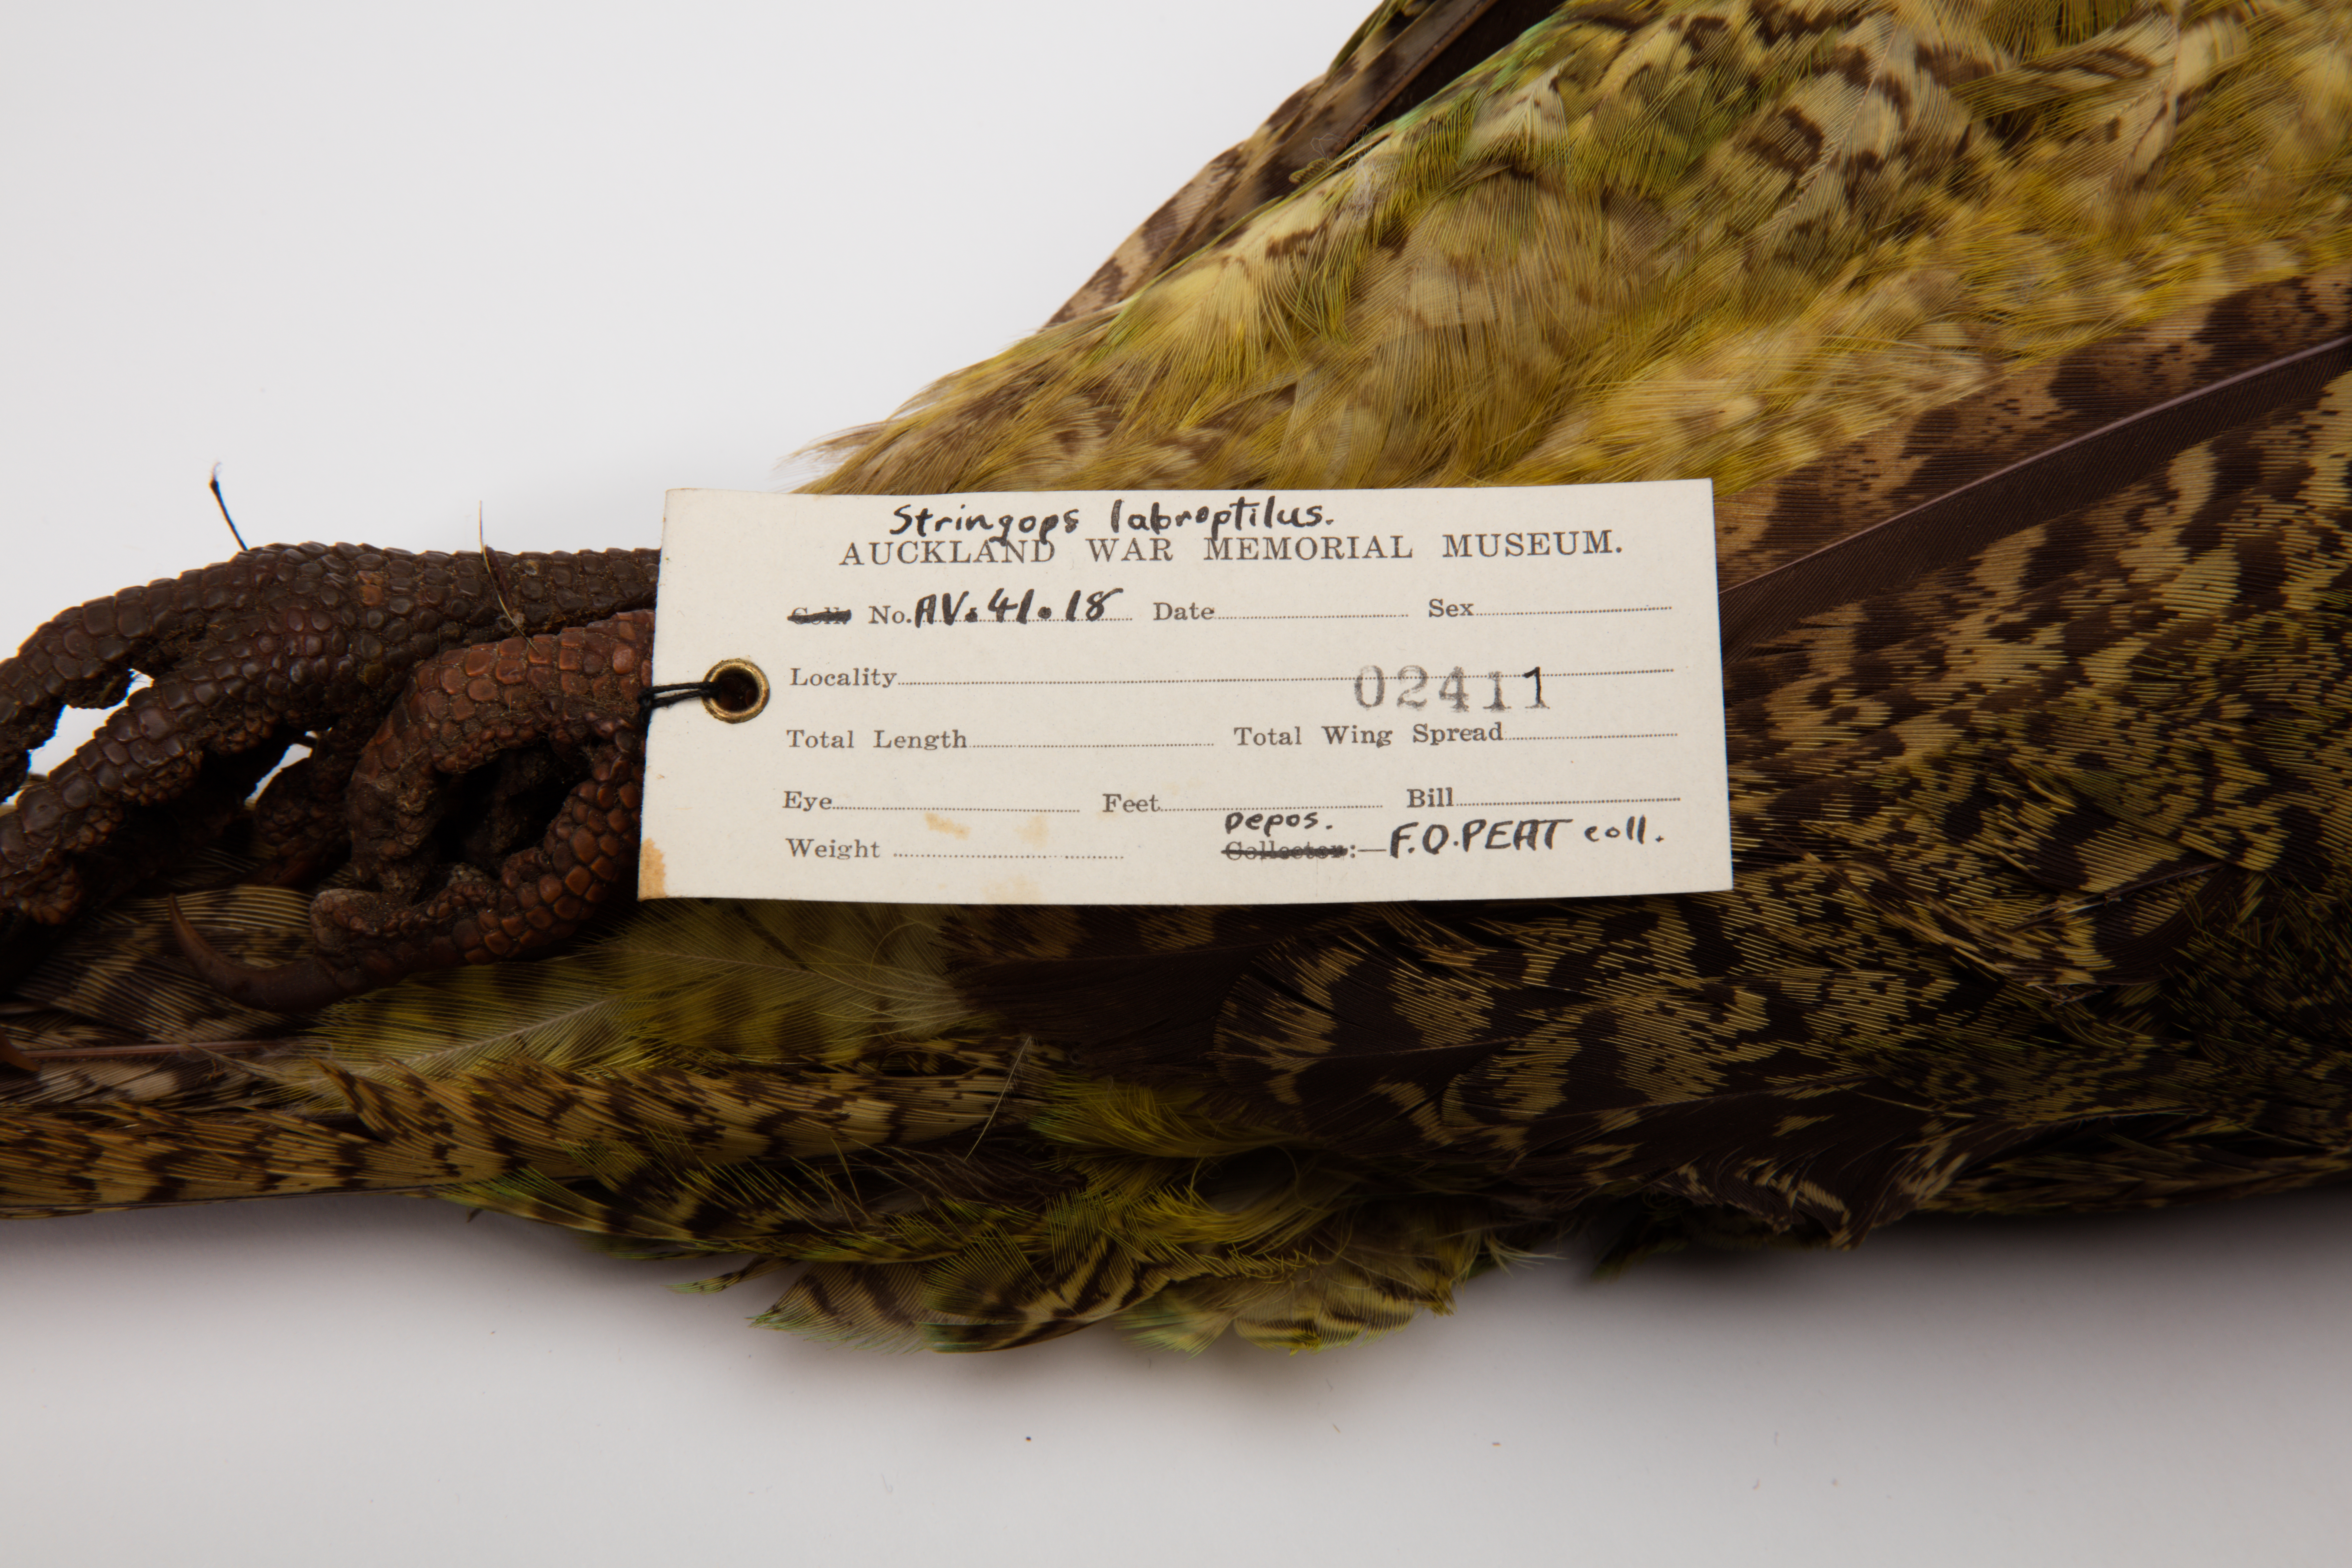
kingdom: Animalia
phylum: Chordata
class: Aves
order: Psittaciformes
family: Psittacidae
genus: Strigops
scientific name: Strigops habroptila
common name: Kakapo
